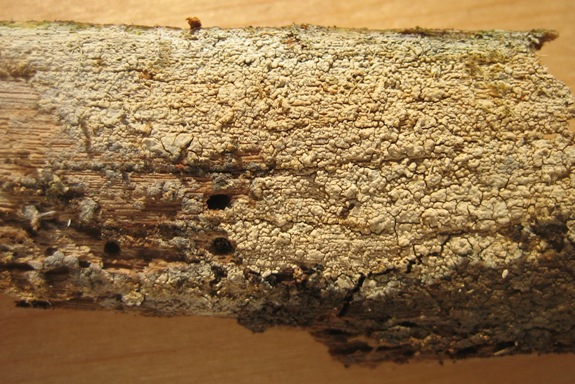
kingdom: Fungi
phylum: Basidiomycota
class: Agaricomycetes
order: Russulales
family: Xenasmataceae
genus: Xenasma
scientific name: Xenasma tulasnelloideum
